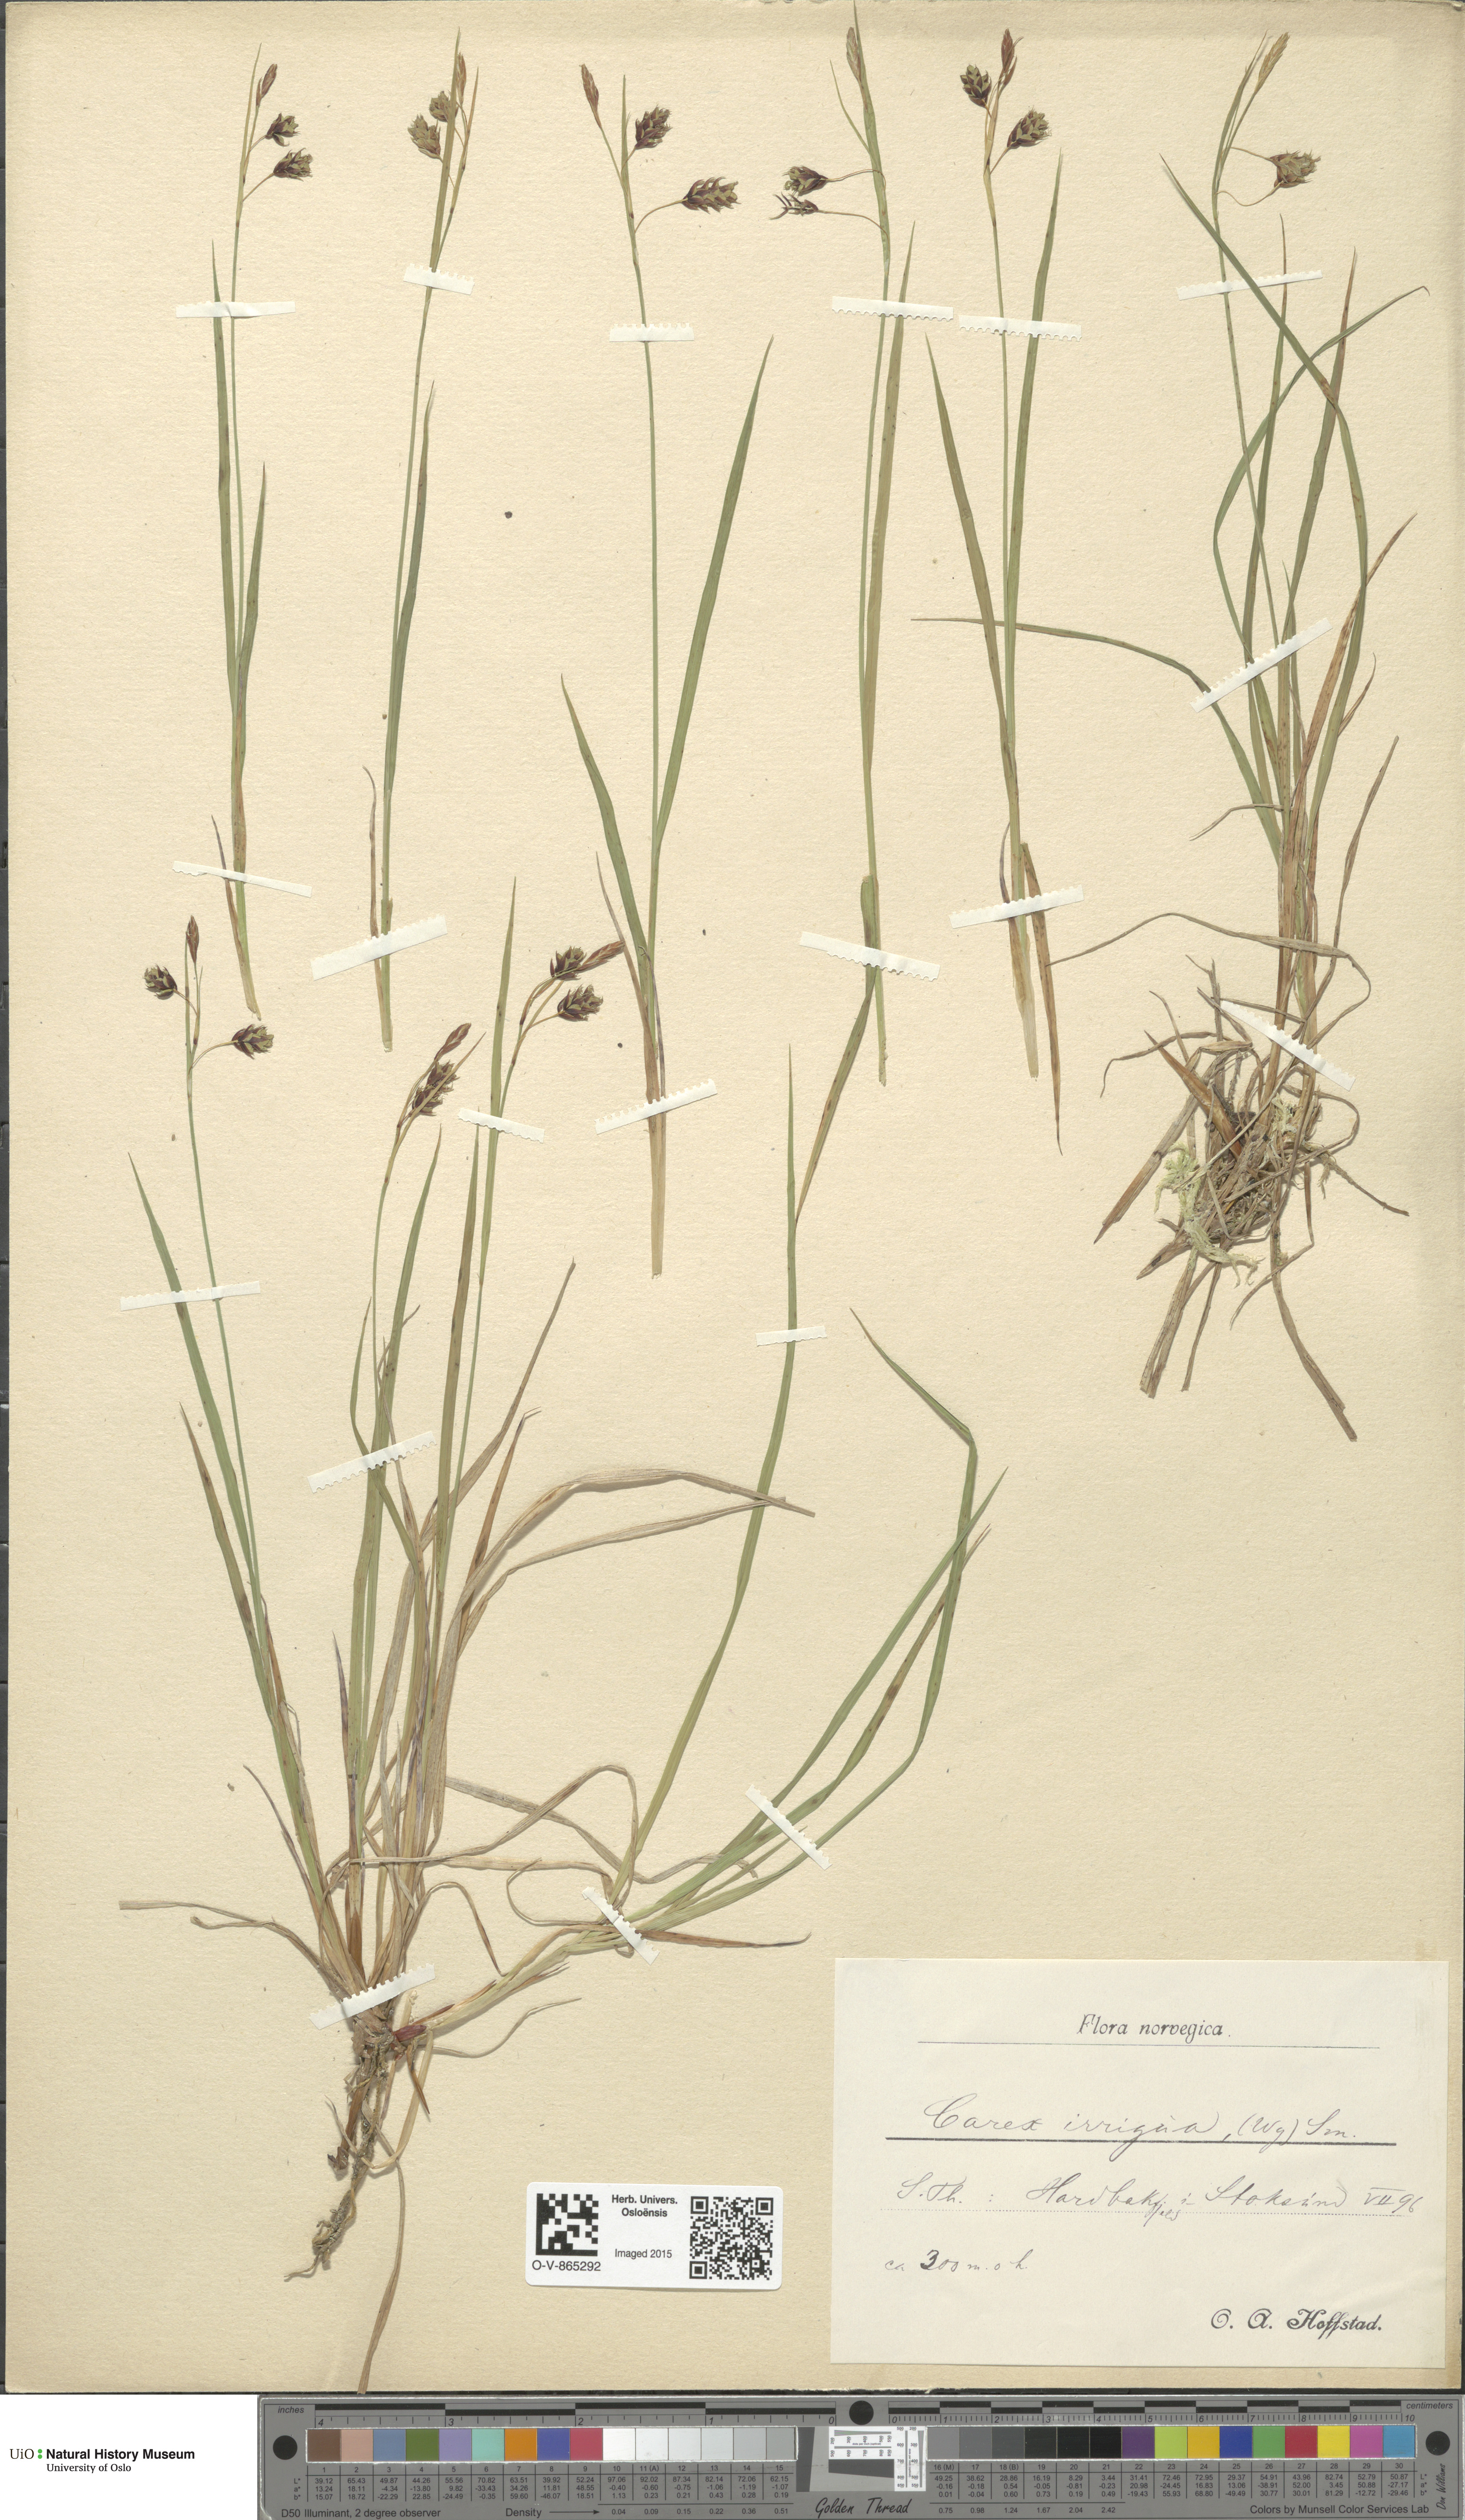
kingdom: Plantae
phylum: Tracheophyta
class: Liliopsida
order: Poales
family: Cyperaceae
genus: Carex
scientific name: Carex magellanica
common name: Bog sedge
